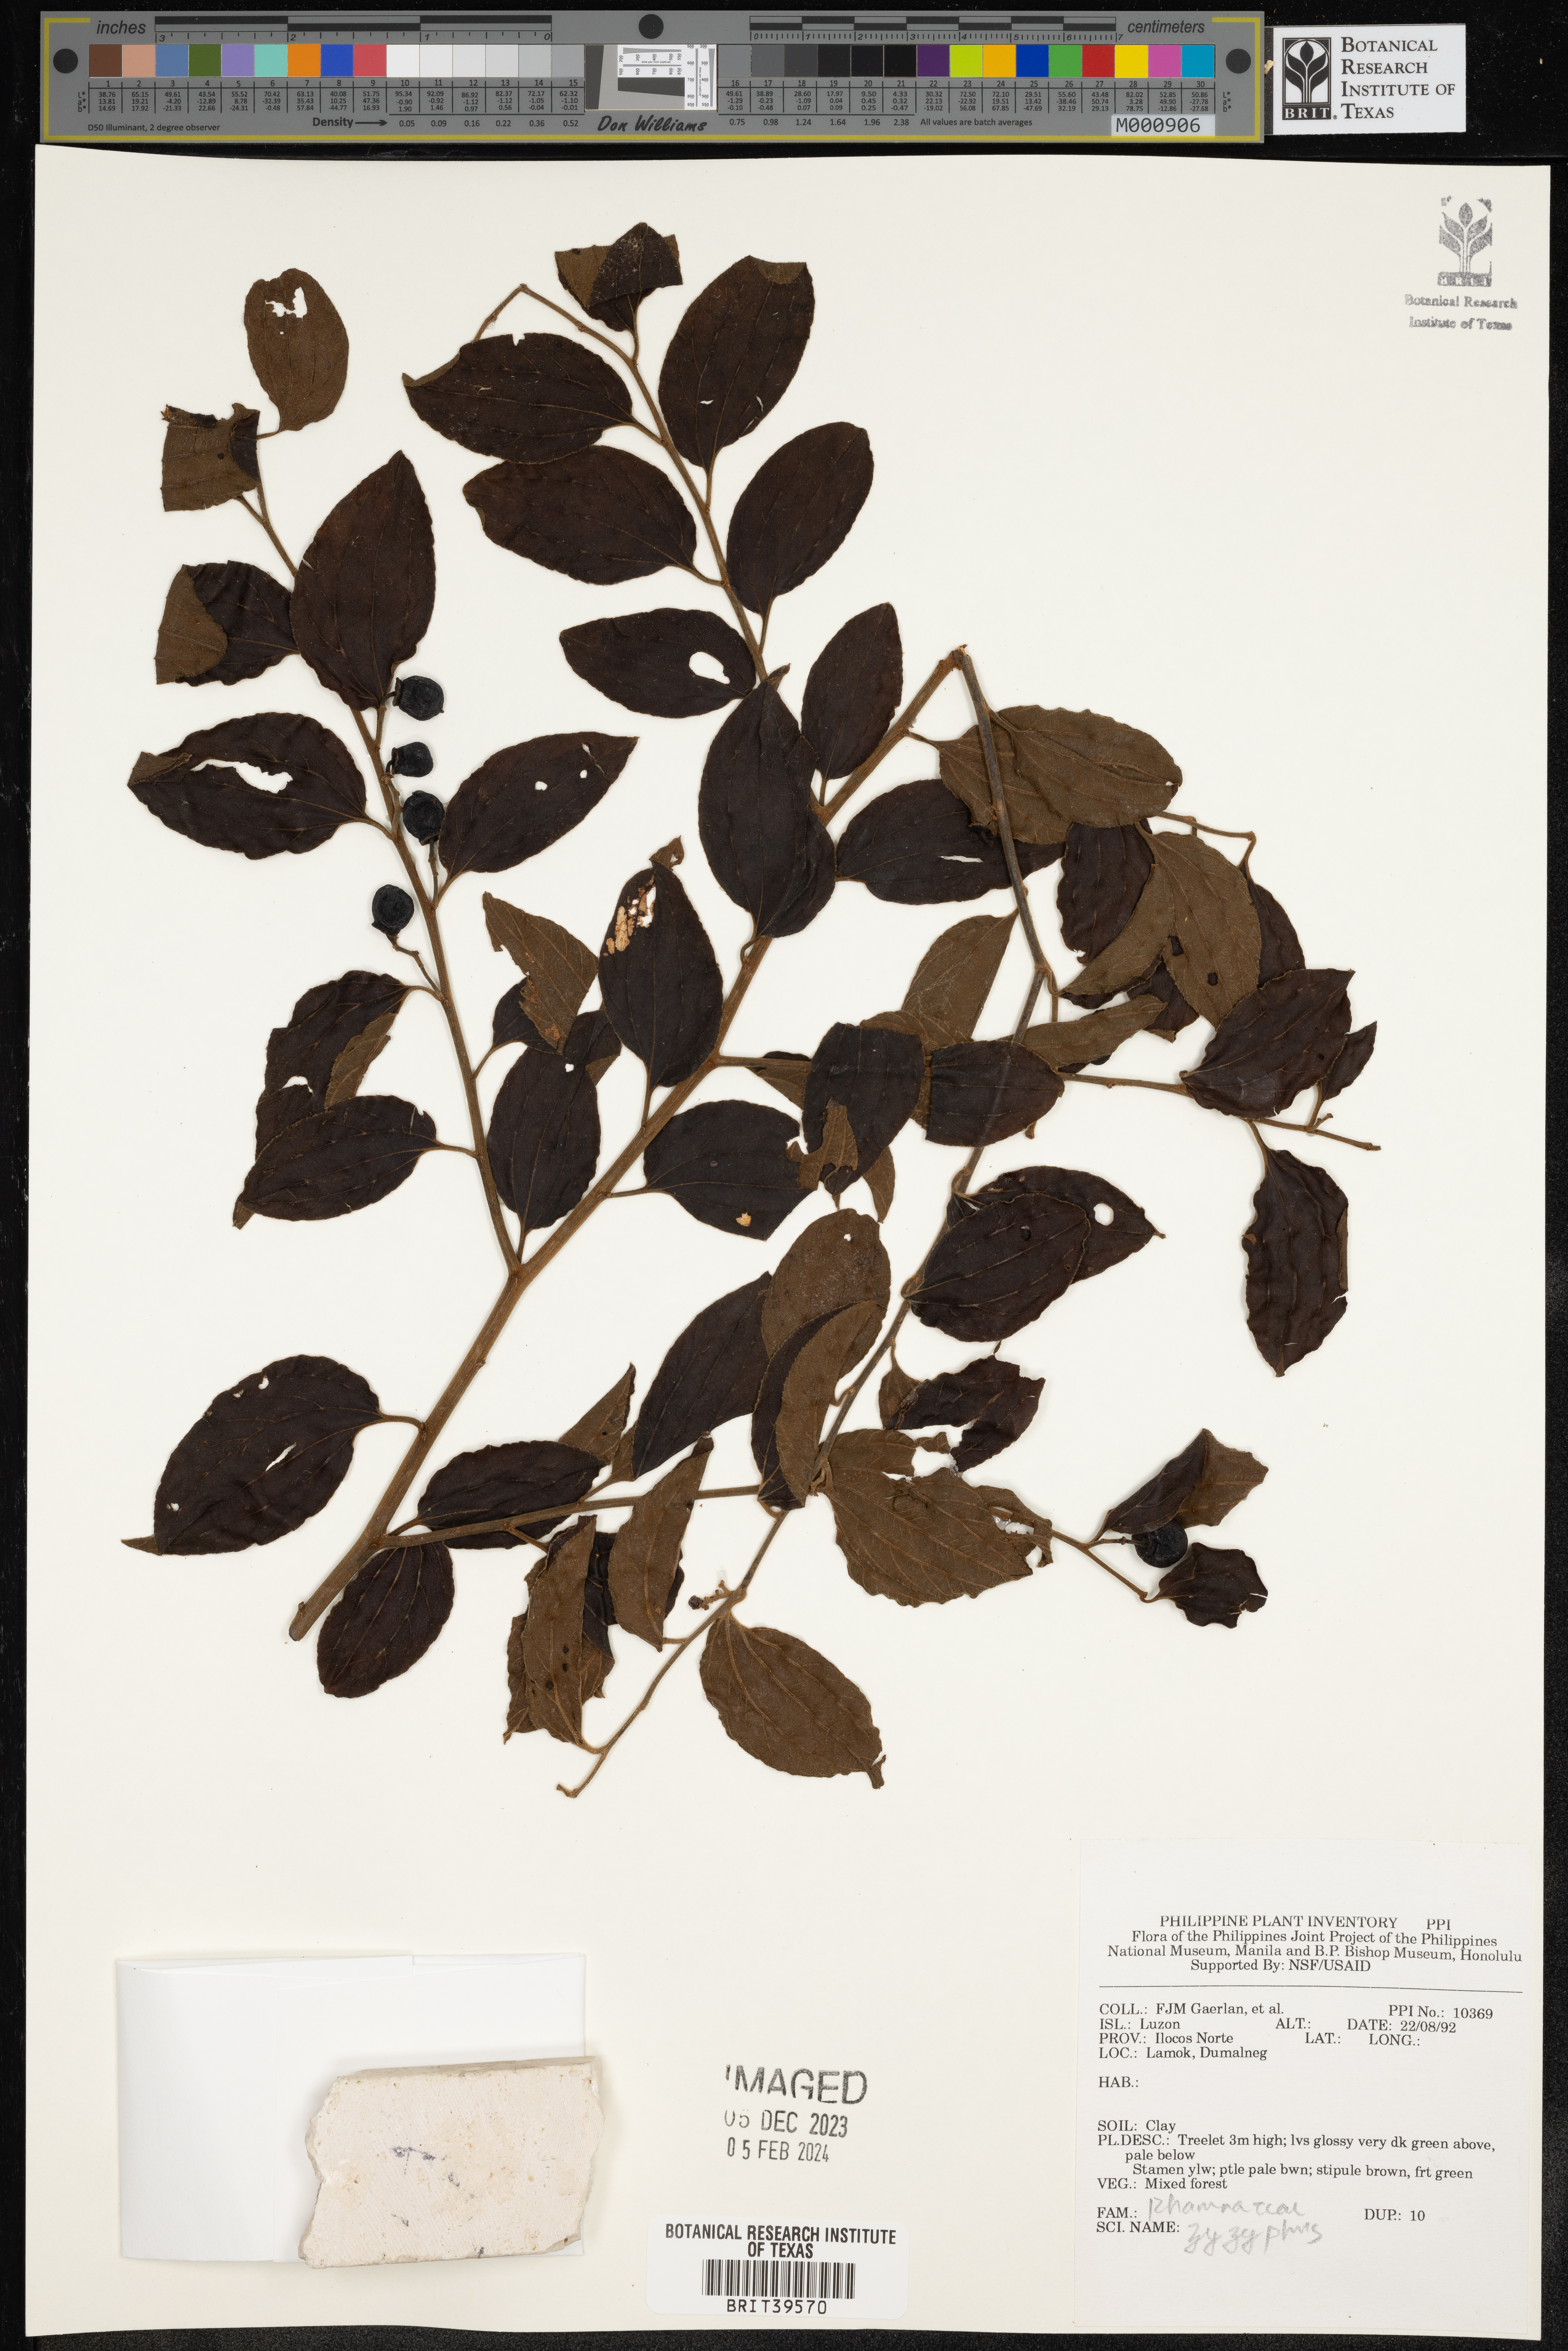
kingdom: Plantae
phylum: Tracheophyta
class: Magnoliopsida
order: Rosales
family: Rhamnaceae
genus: Zizyphus
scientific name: Zizyphus
